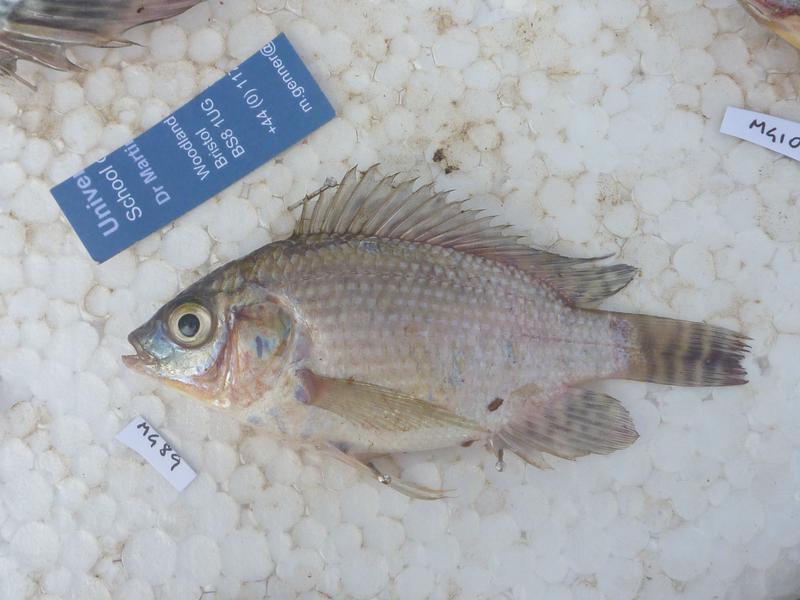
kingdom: Animalia
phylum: Chordata
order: Perciformes
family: Cichlidae
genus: Oreochromis
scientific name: Oreochromis niloticus
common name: Nile tilapia
